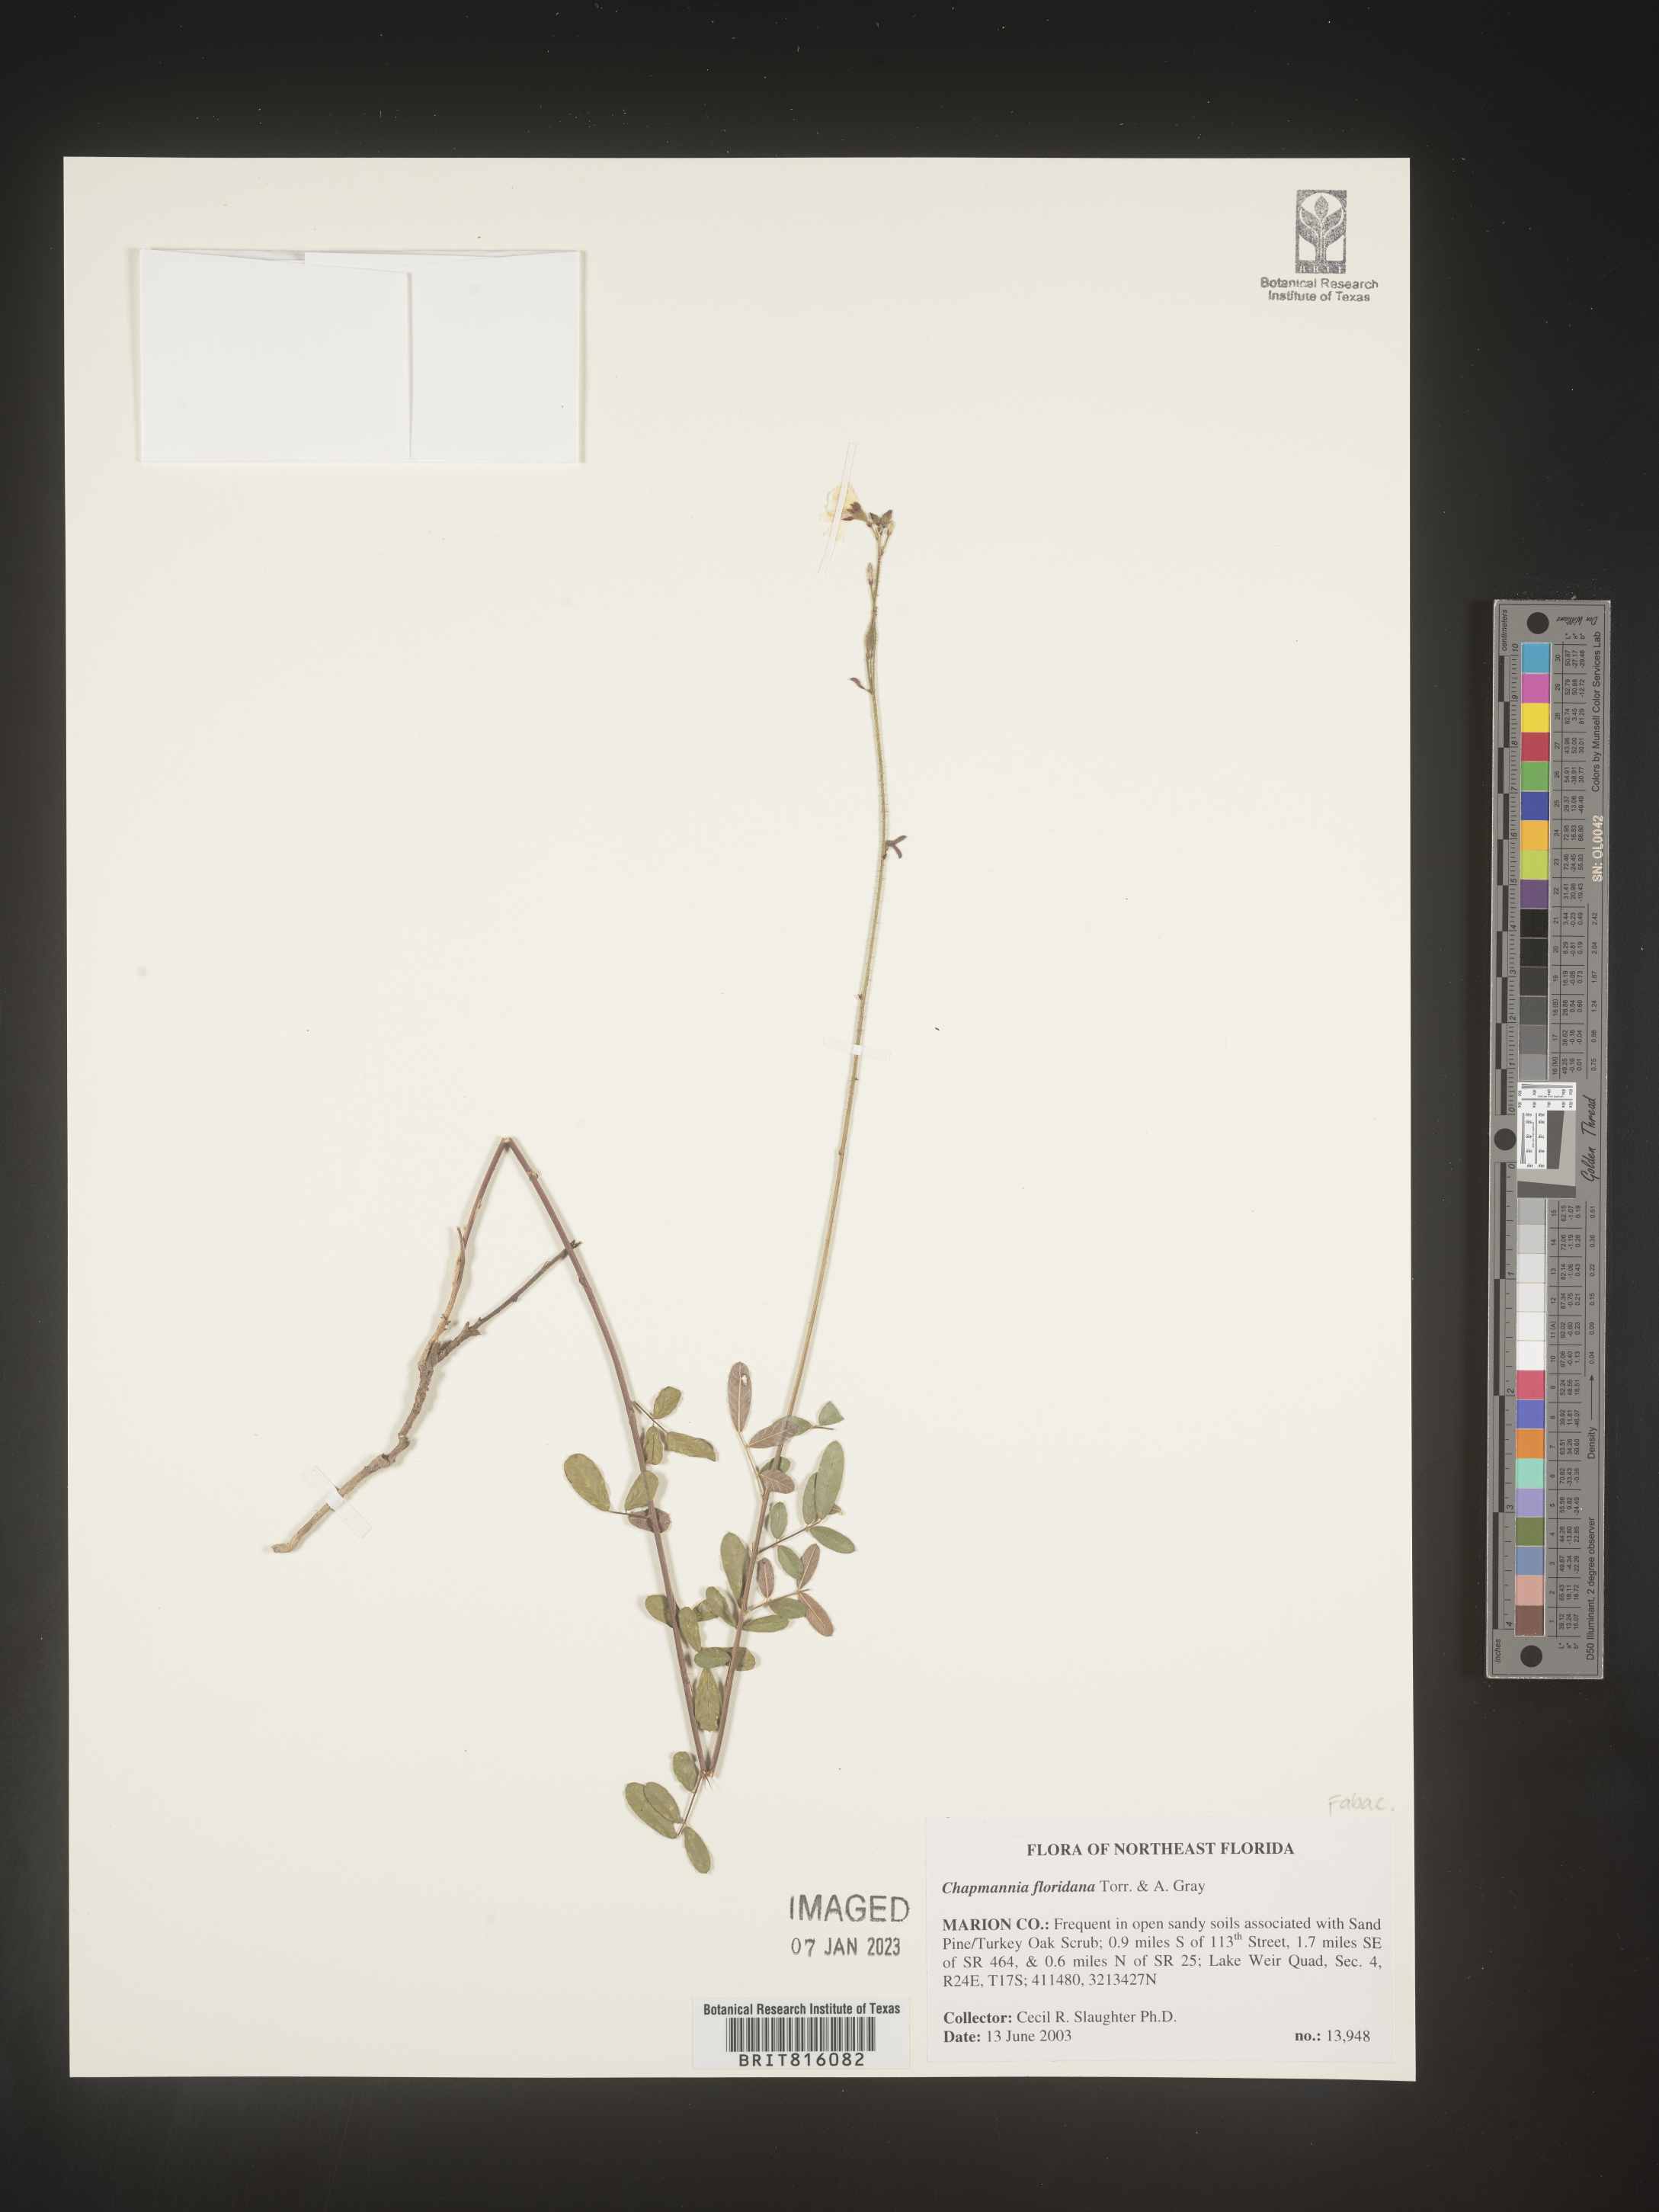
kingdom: Plantae
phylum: Tracheophyta
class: Magnoliopsida
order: Fabales
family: Fabaceae
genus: Chapmannia
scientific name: Chapmannia
